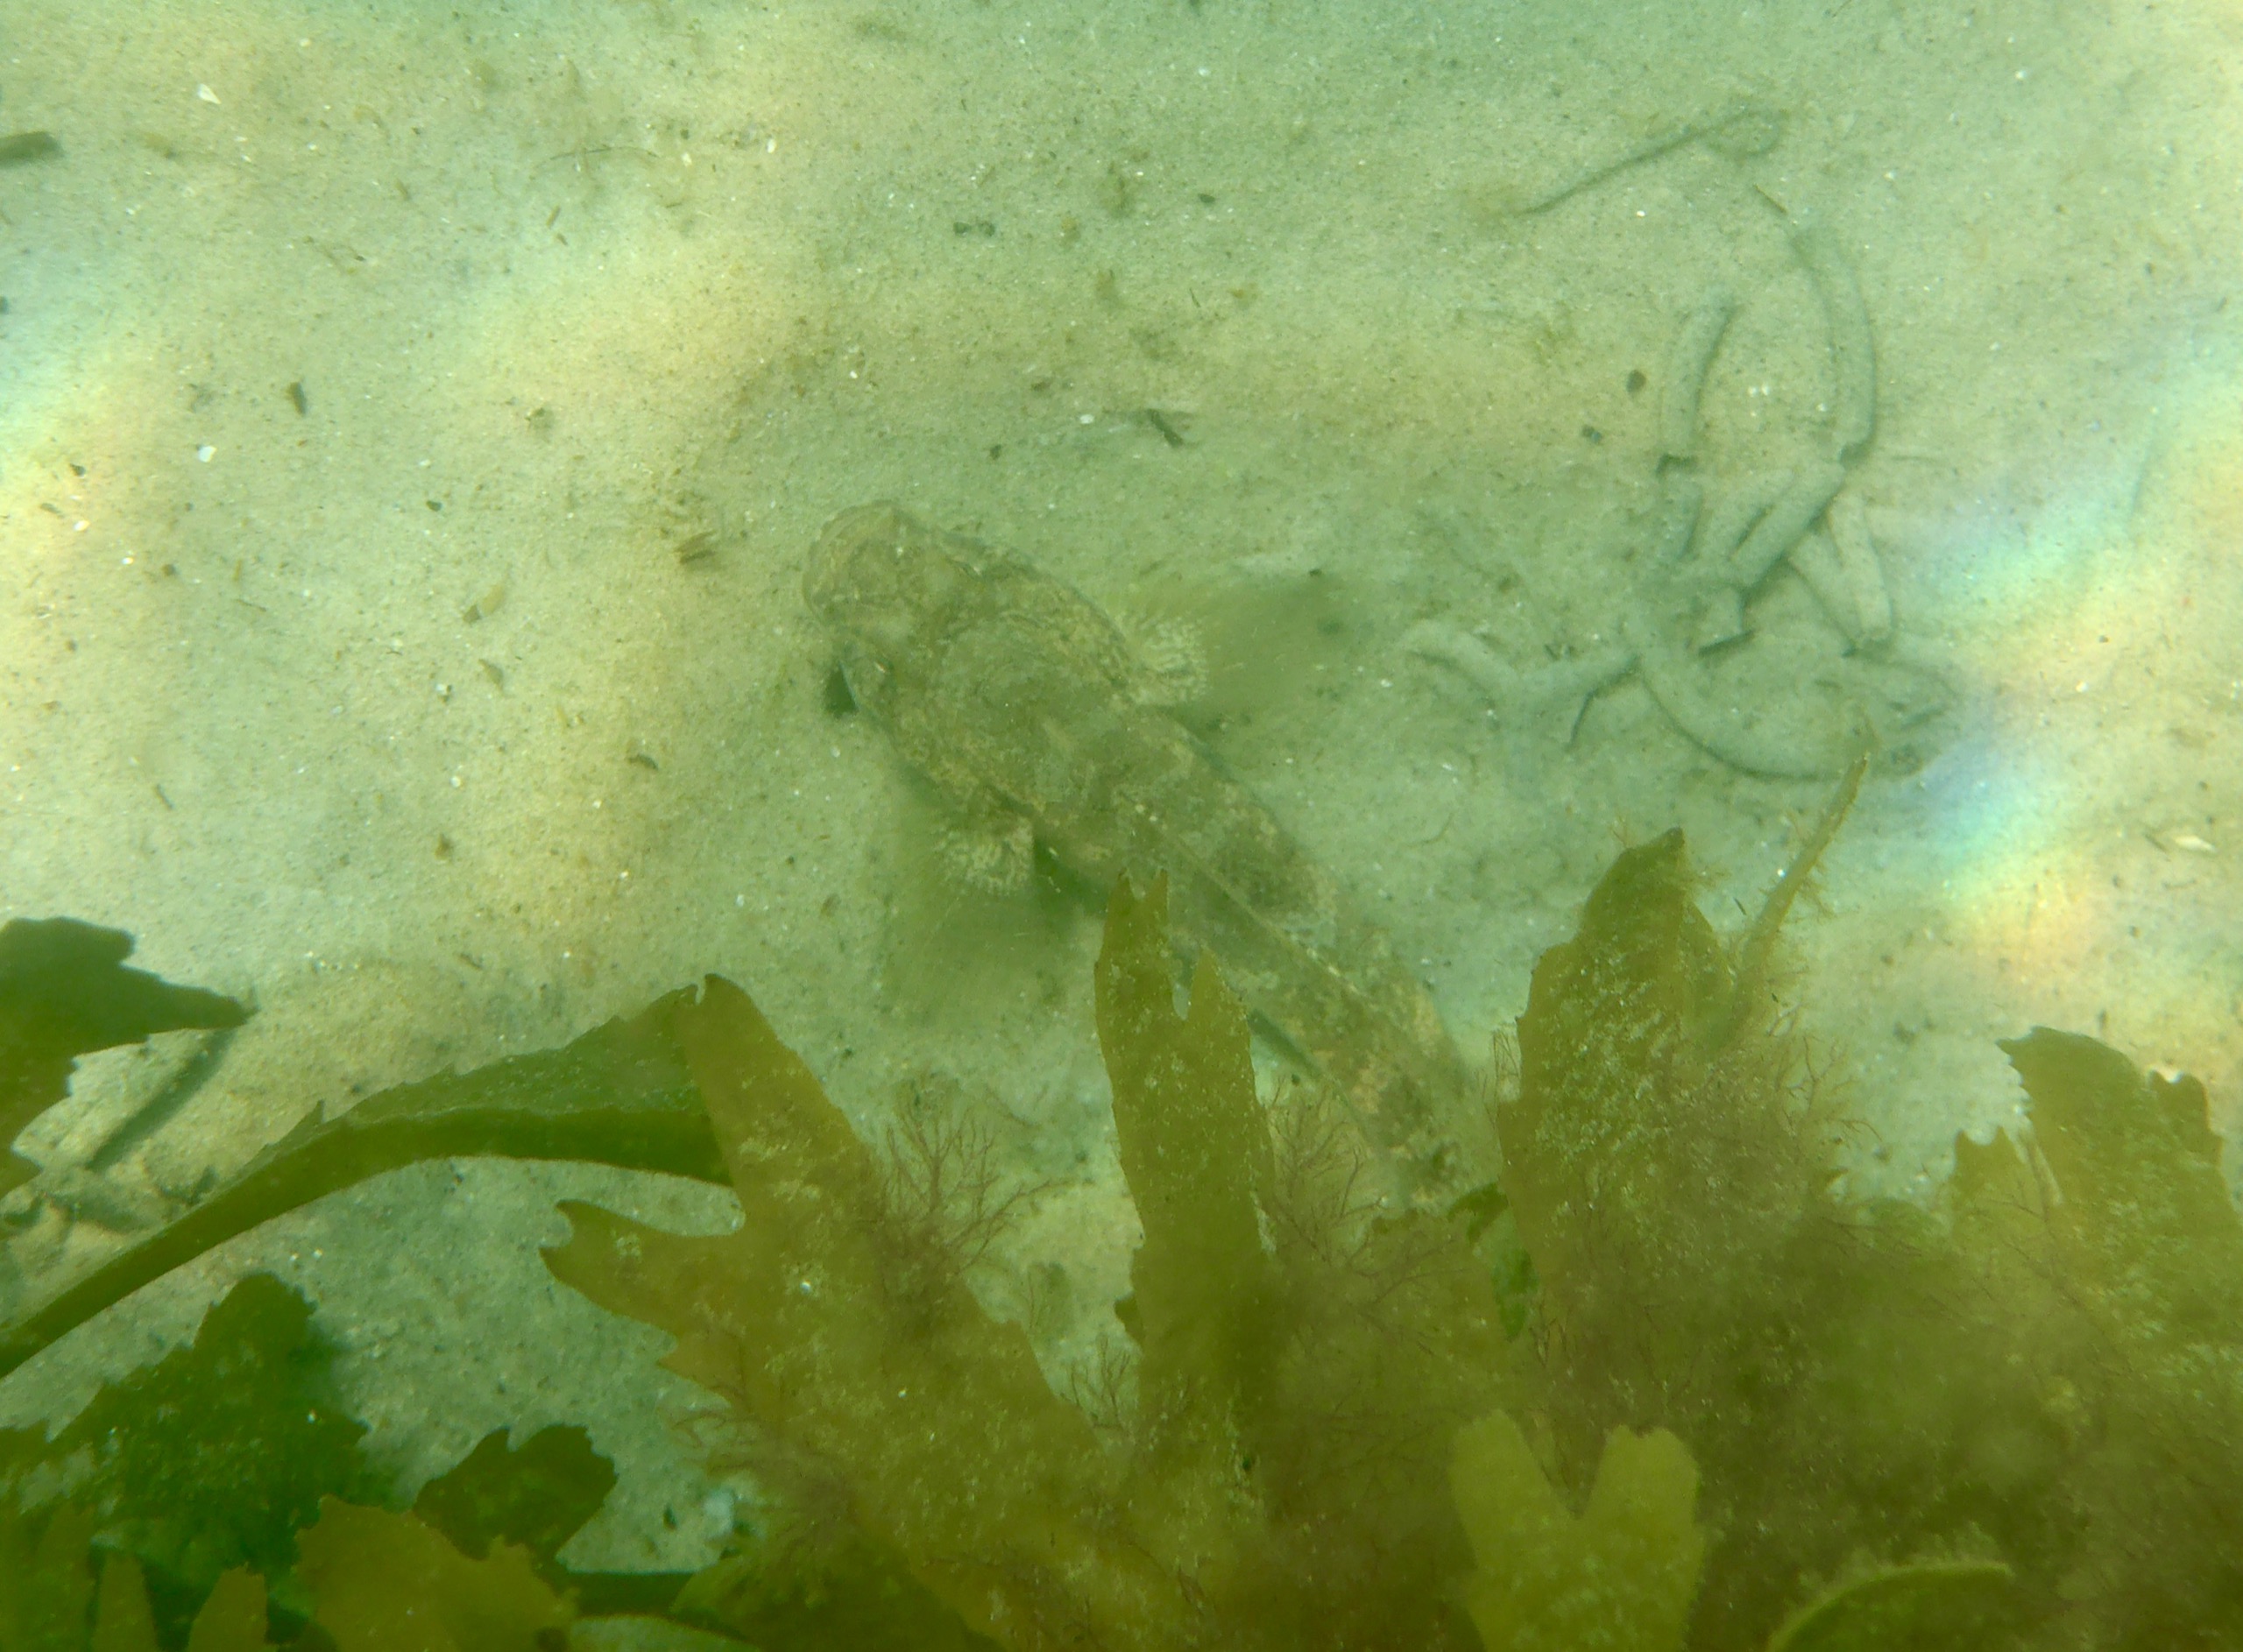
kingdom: Animalia
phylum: Chordata
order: Perciformes
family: Gobiidae
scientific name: Gobiidae
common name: Kutlingefamilien
